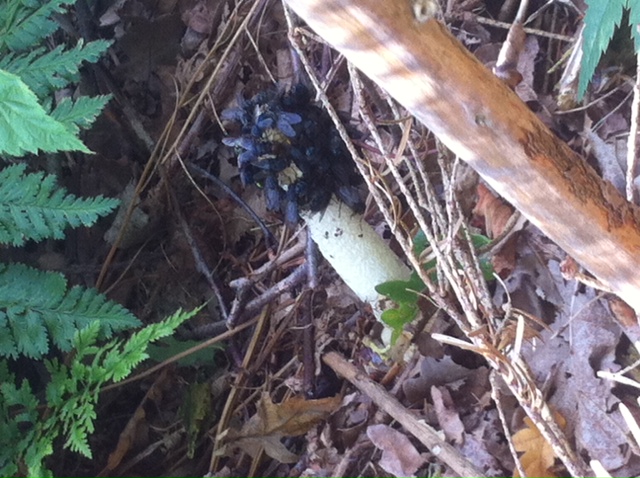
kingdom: Fungi
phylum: Basidiomycota
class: Agaricomycetes
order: Phallales
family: Phallaceae
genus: Phallus
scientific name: Phallus impudicus
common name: almindelig stinksvamp
